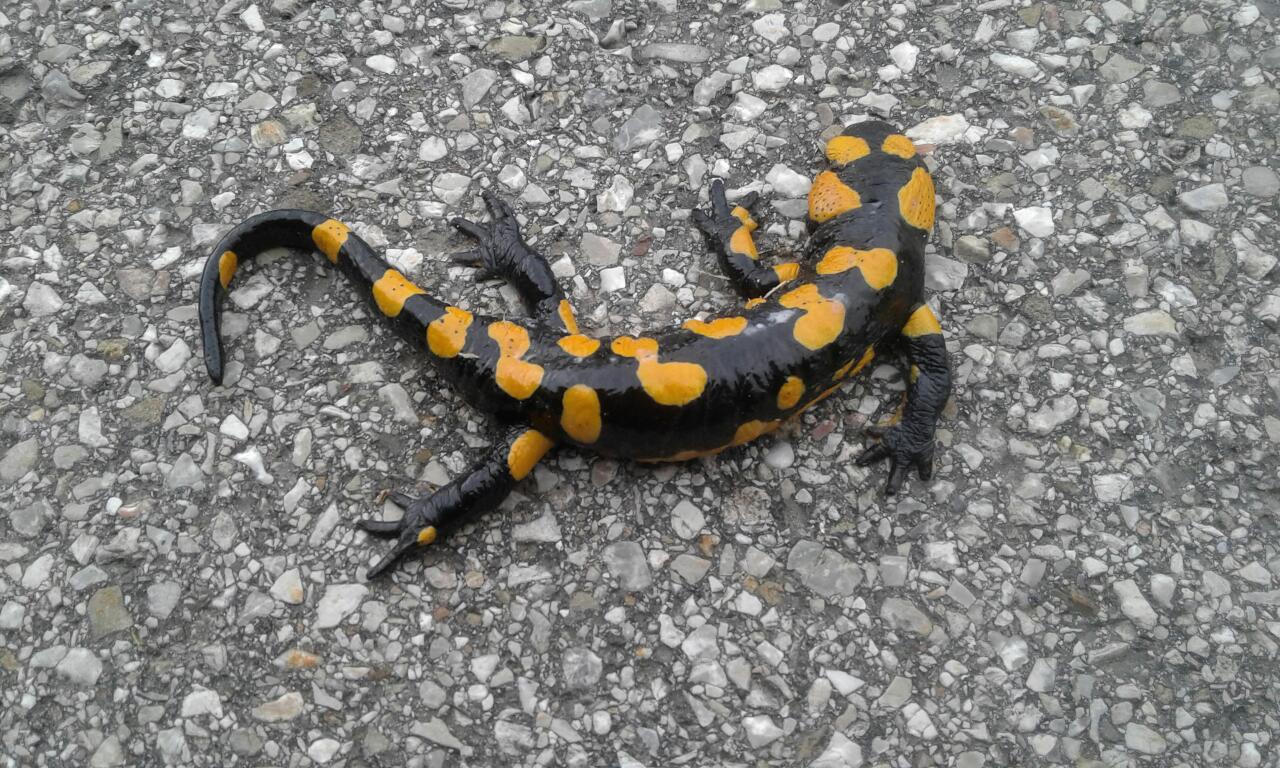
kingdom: Animalia
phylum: Chordata
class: Amphibia
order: Caudata
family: Salamandridae
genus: Salamandra
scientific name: Salamandra salamandra
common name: Fire salamander
